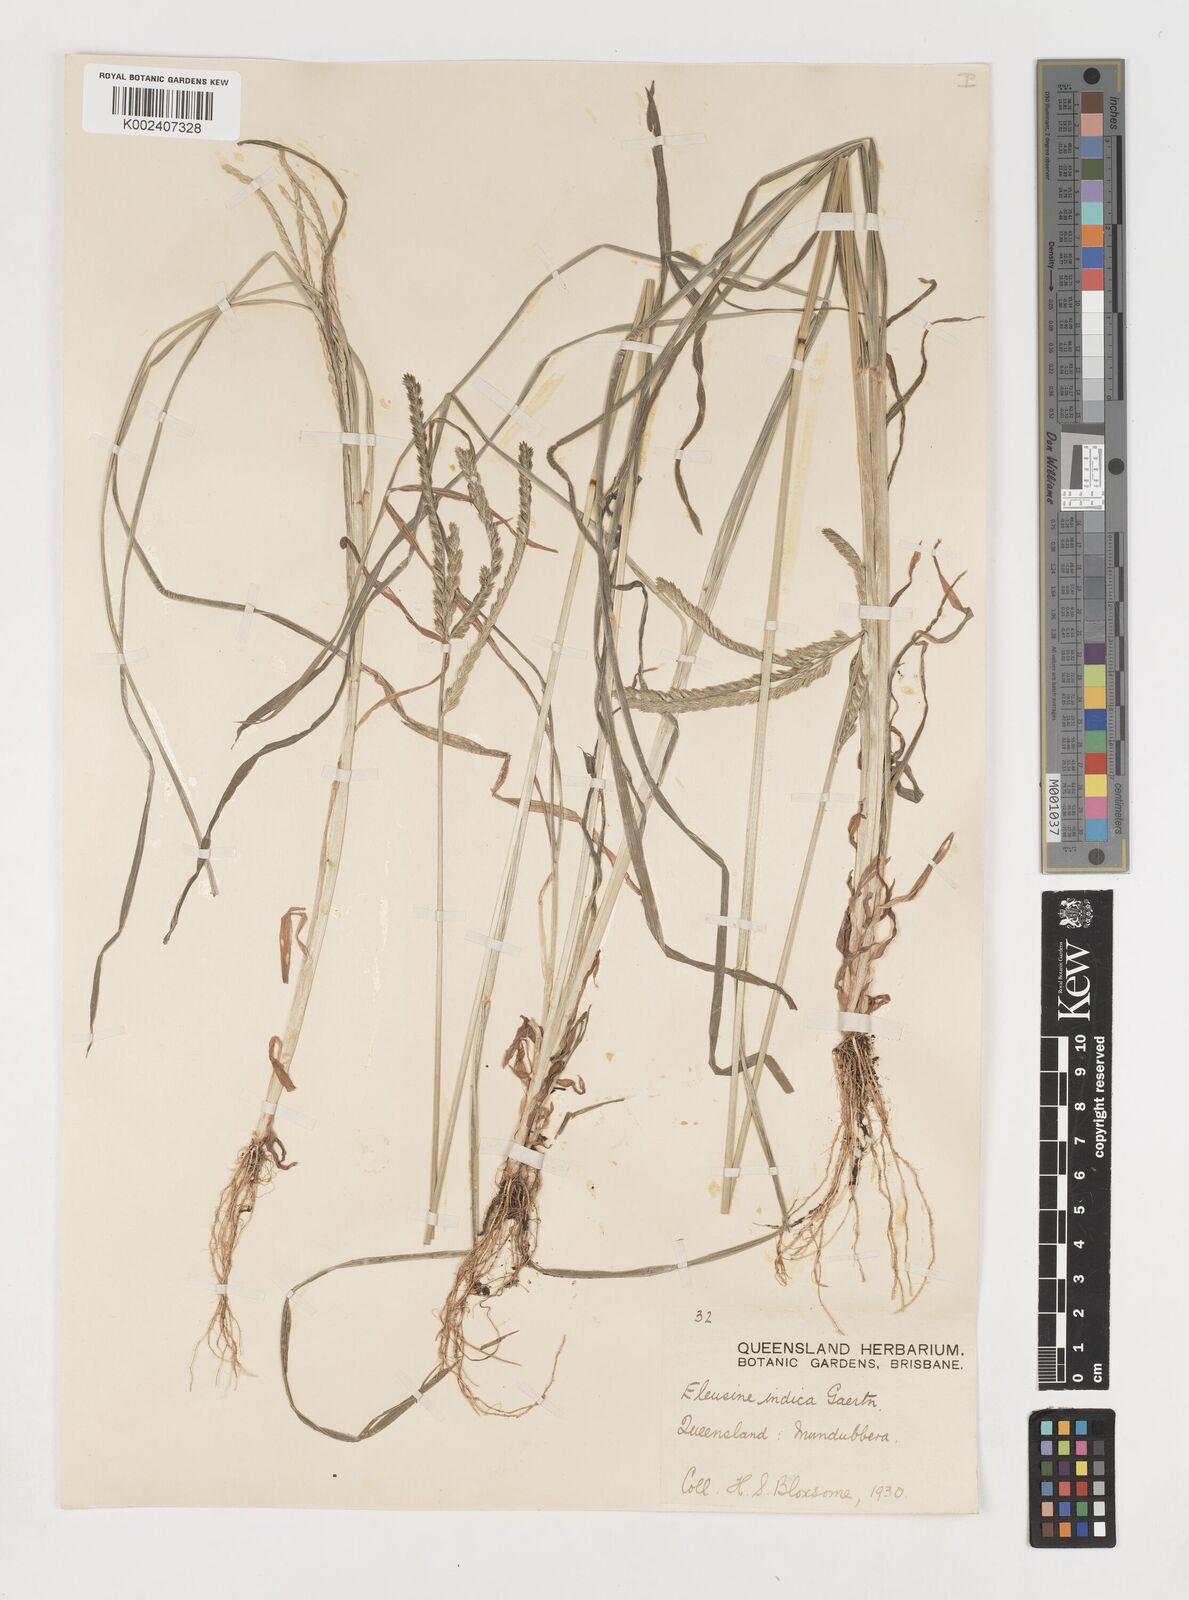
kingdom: Plantae
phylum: Tracheophyta
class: Liliopsida
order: Poales
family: Poaceae
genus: Eleusine
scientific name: Eleusine indica
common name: Yard-grass
